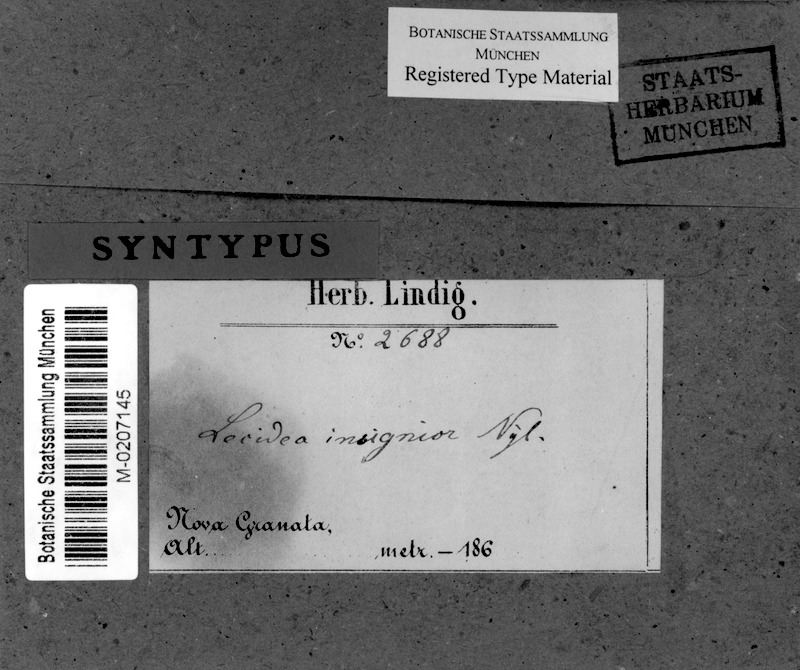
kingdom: Fungi
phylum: Ascomycota
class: Arthoniomycetes
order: Arthoniales
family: Opegraphaceae
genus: Cresponea
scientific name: Cresponea leprieurii
